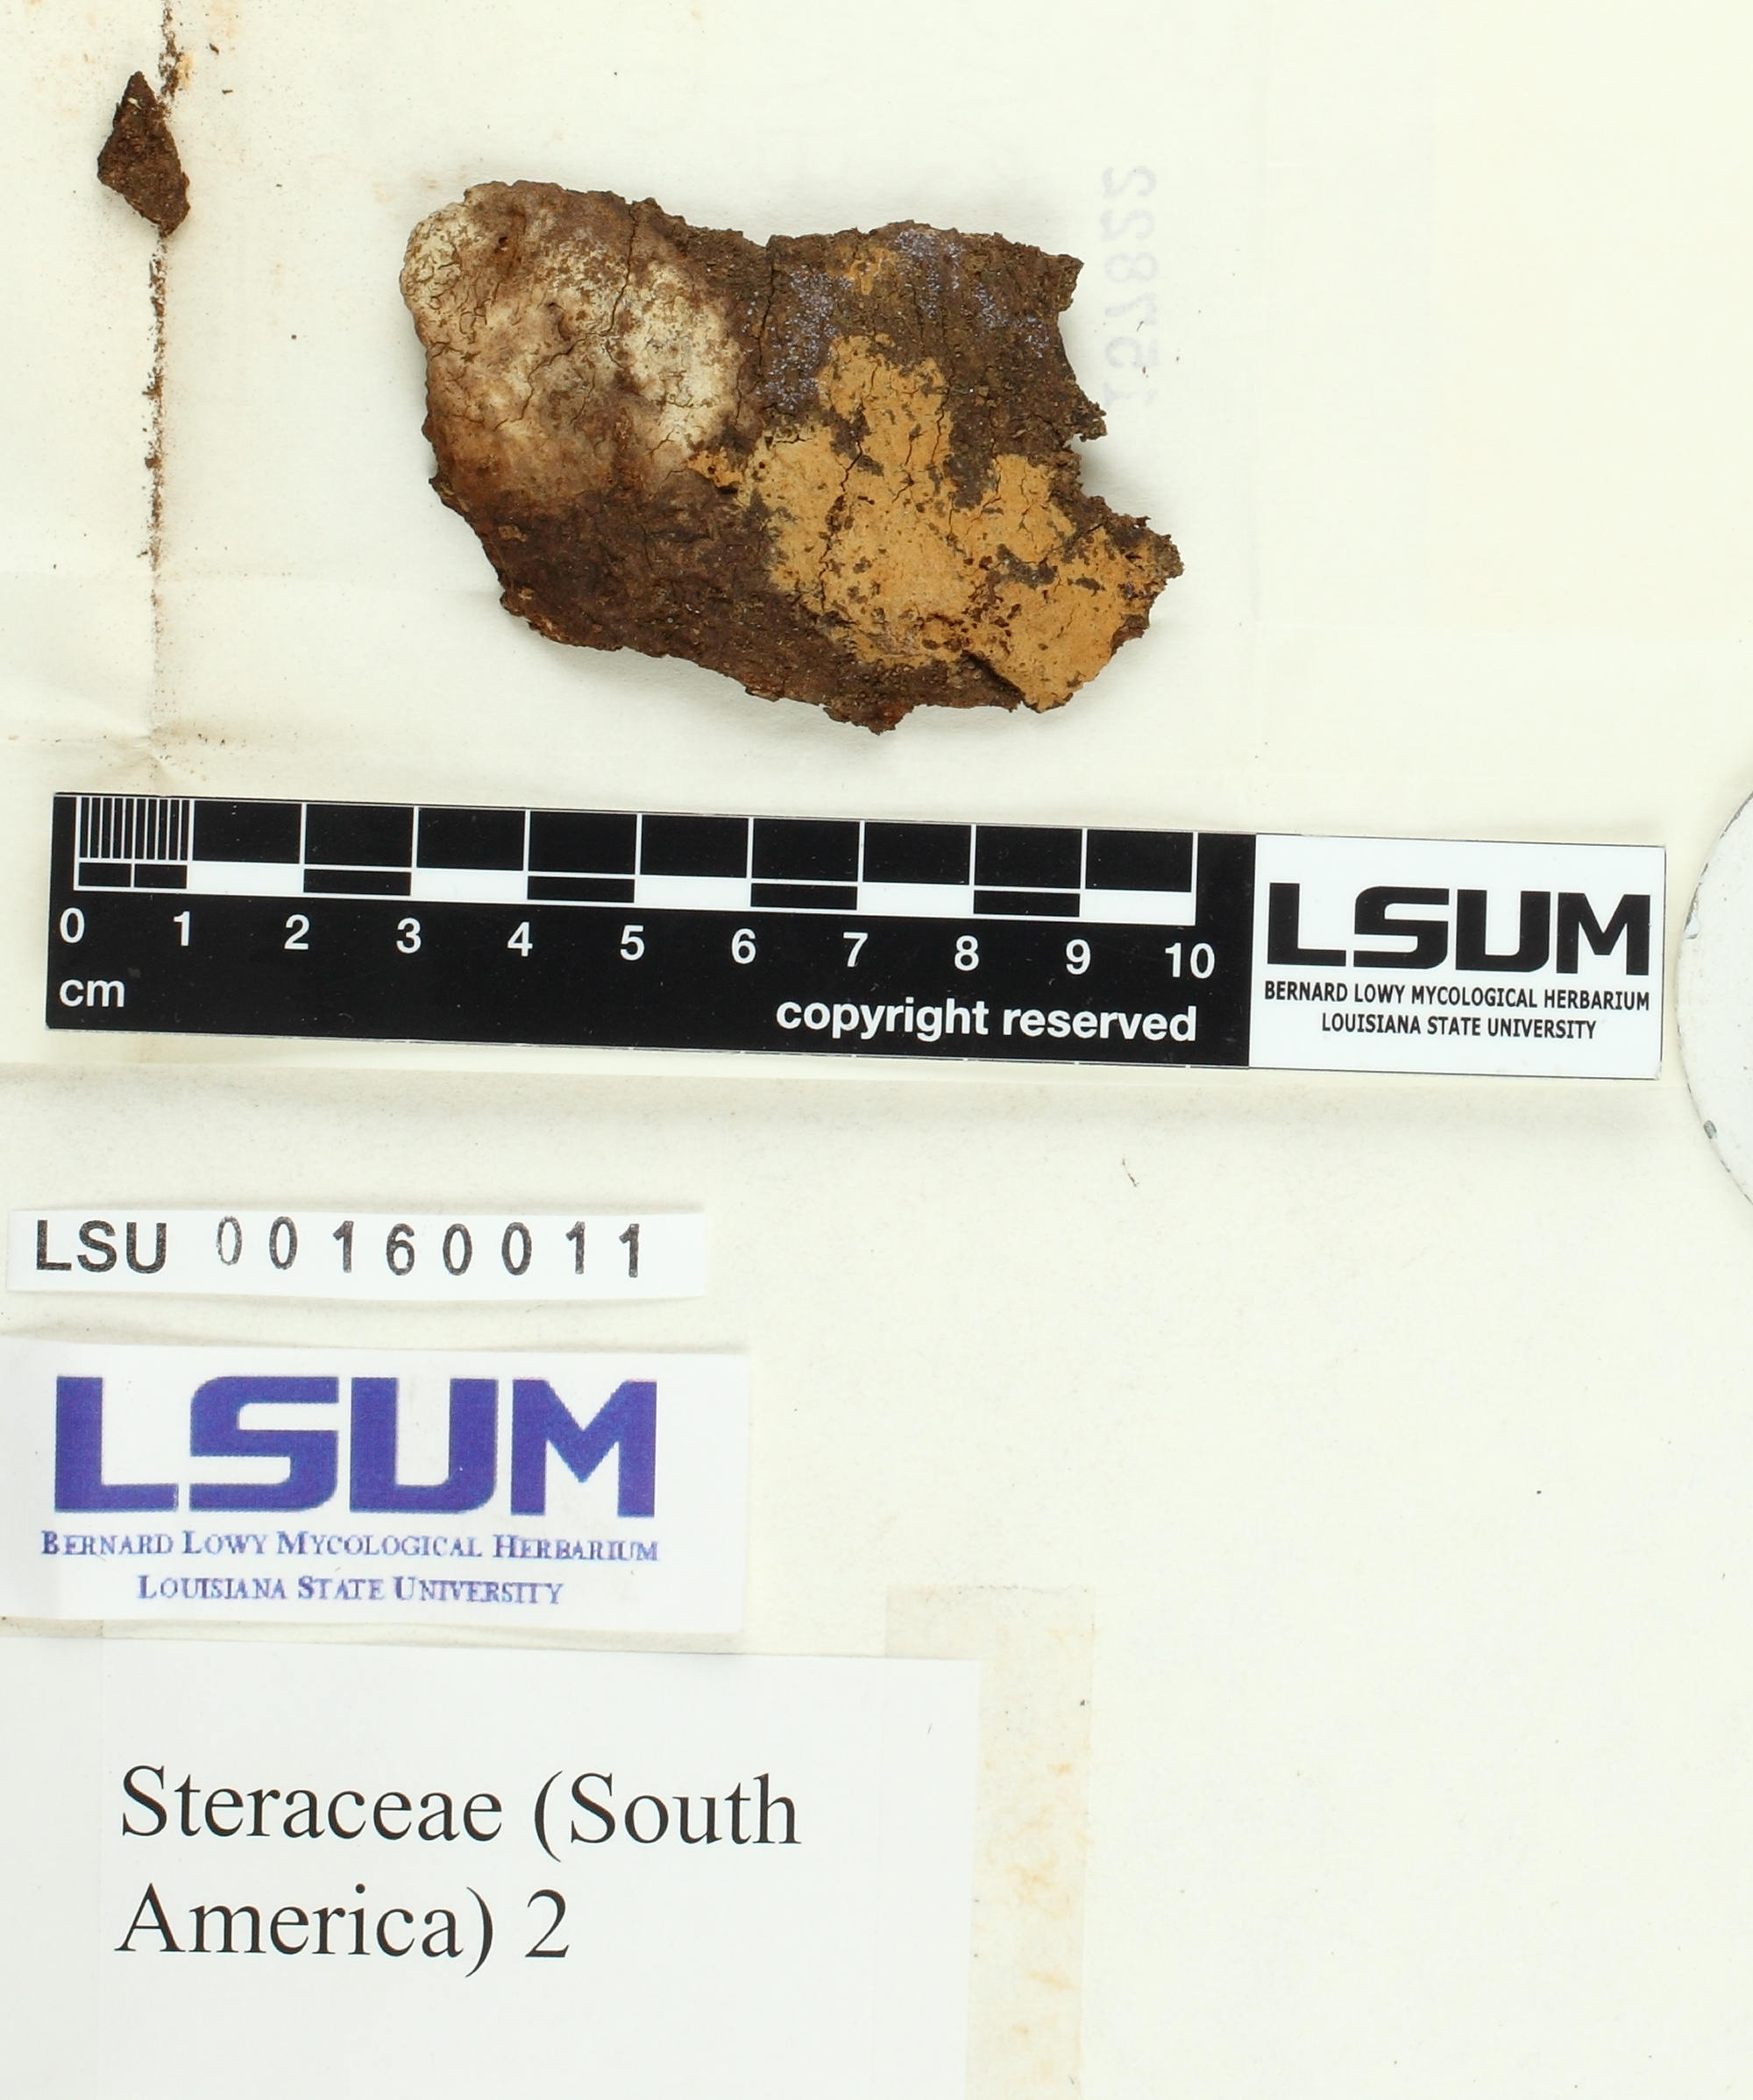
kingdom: Fungi
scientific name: Fungi
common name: Fungi
